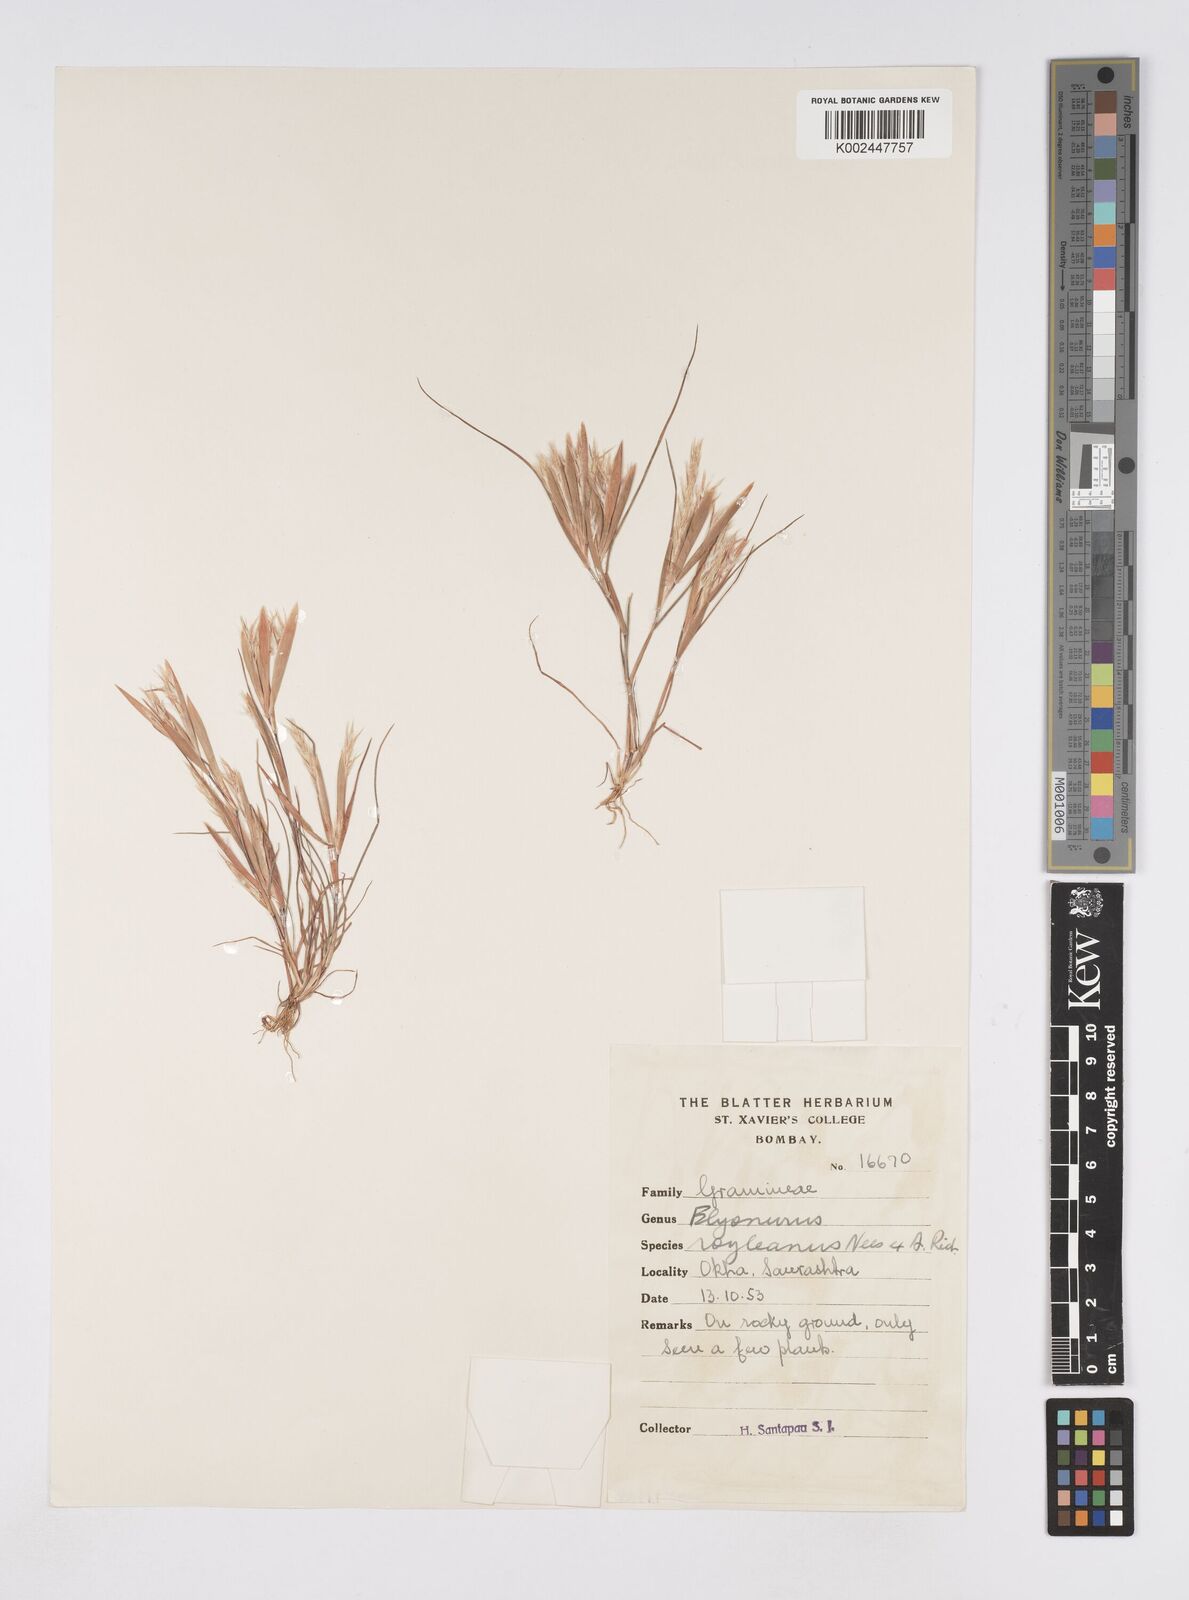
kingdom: Plantae
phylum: Tracheophyta
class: Liliopsida
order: Poales
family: Poaceae
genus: Elionurus
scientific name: Elionurus royleanus
